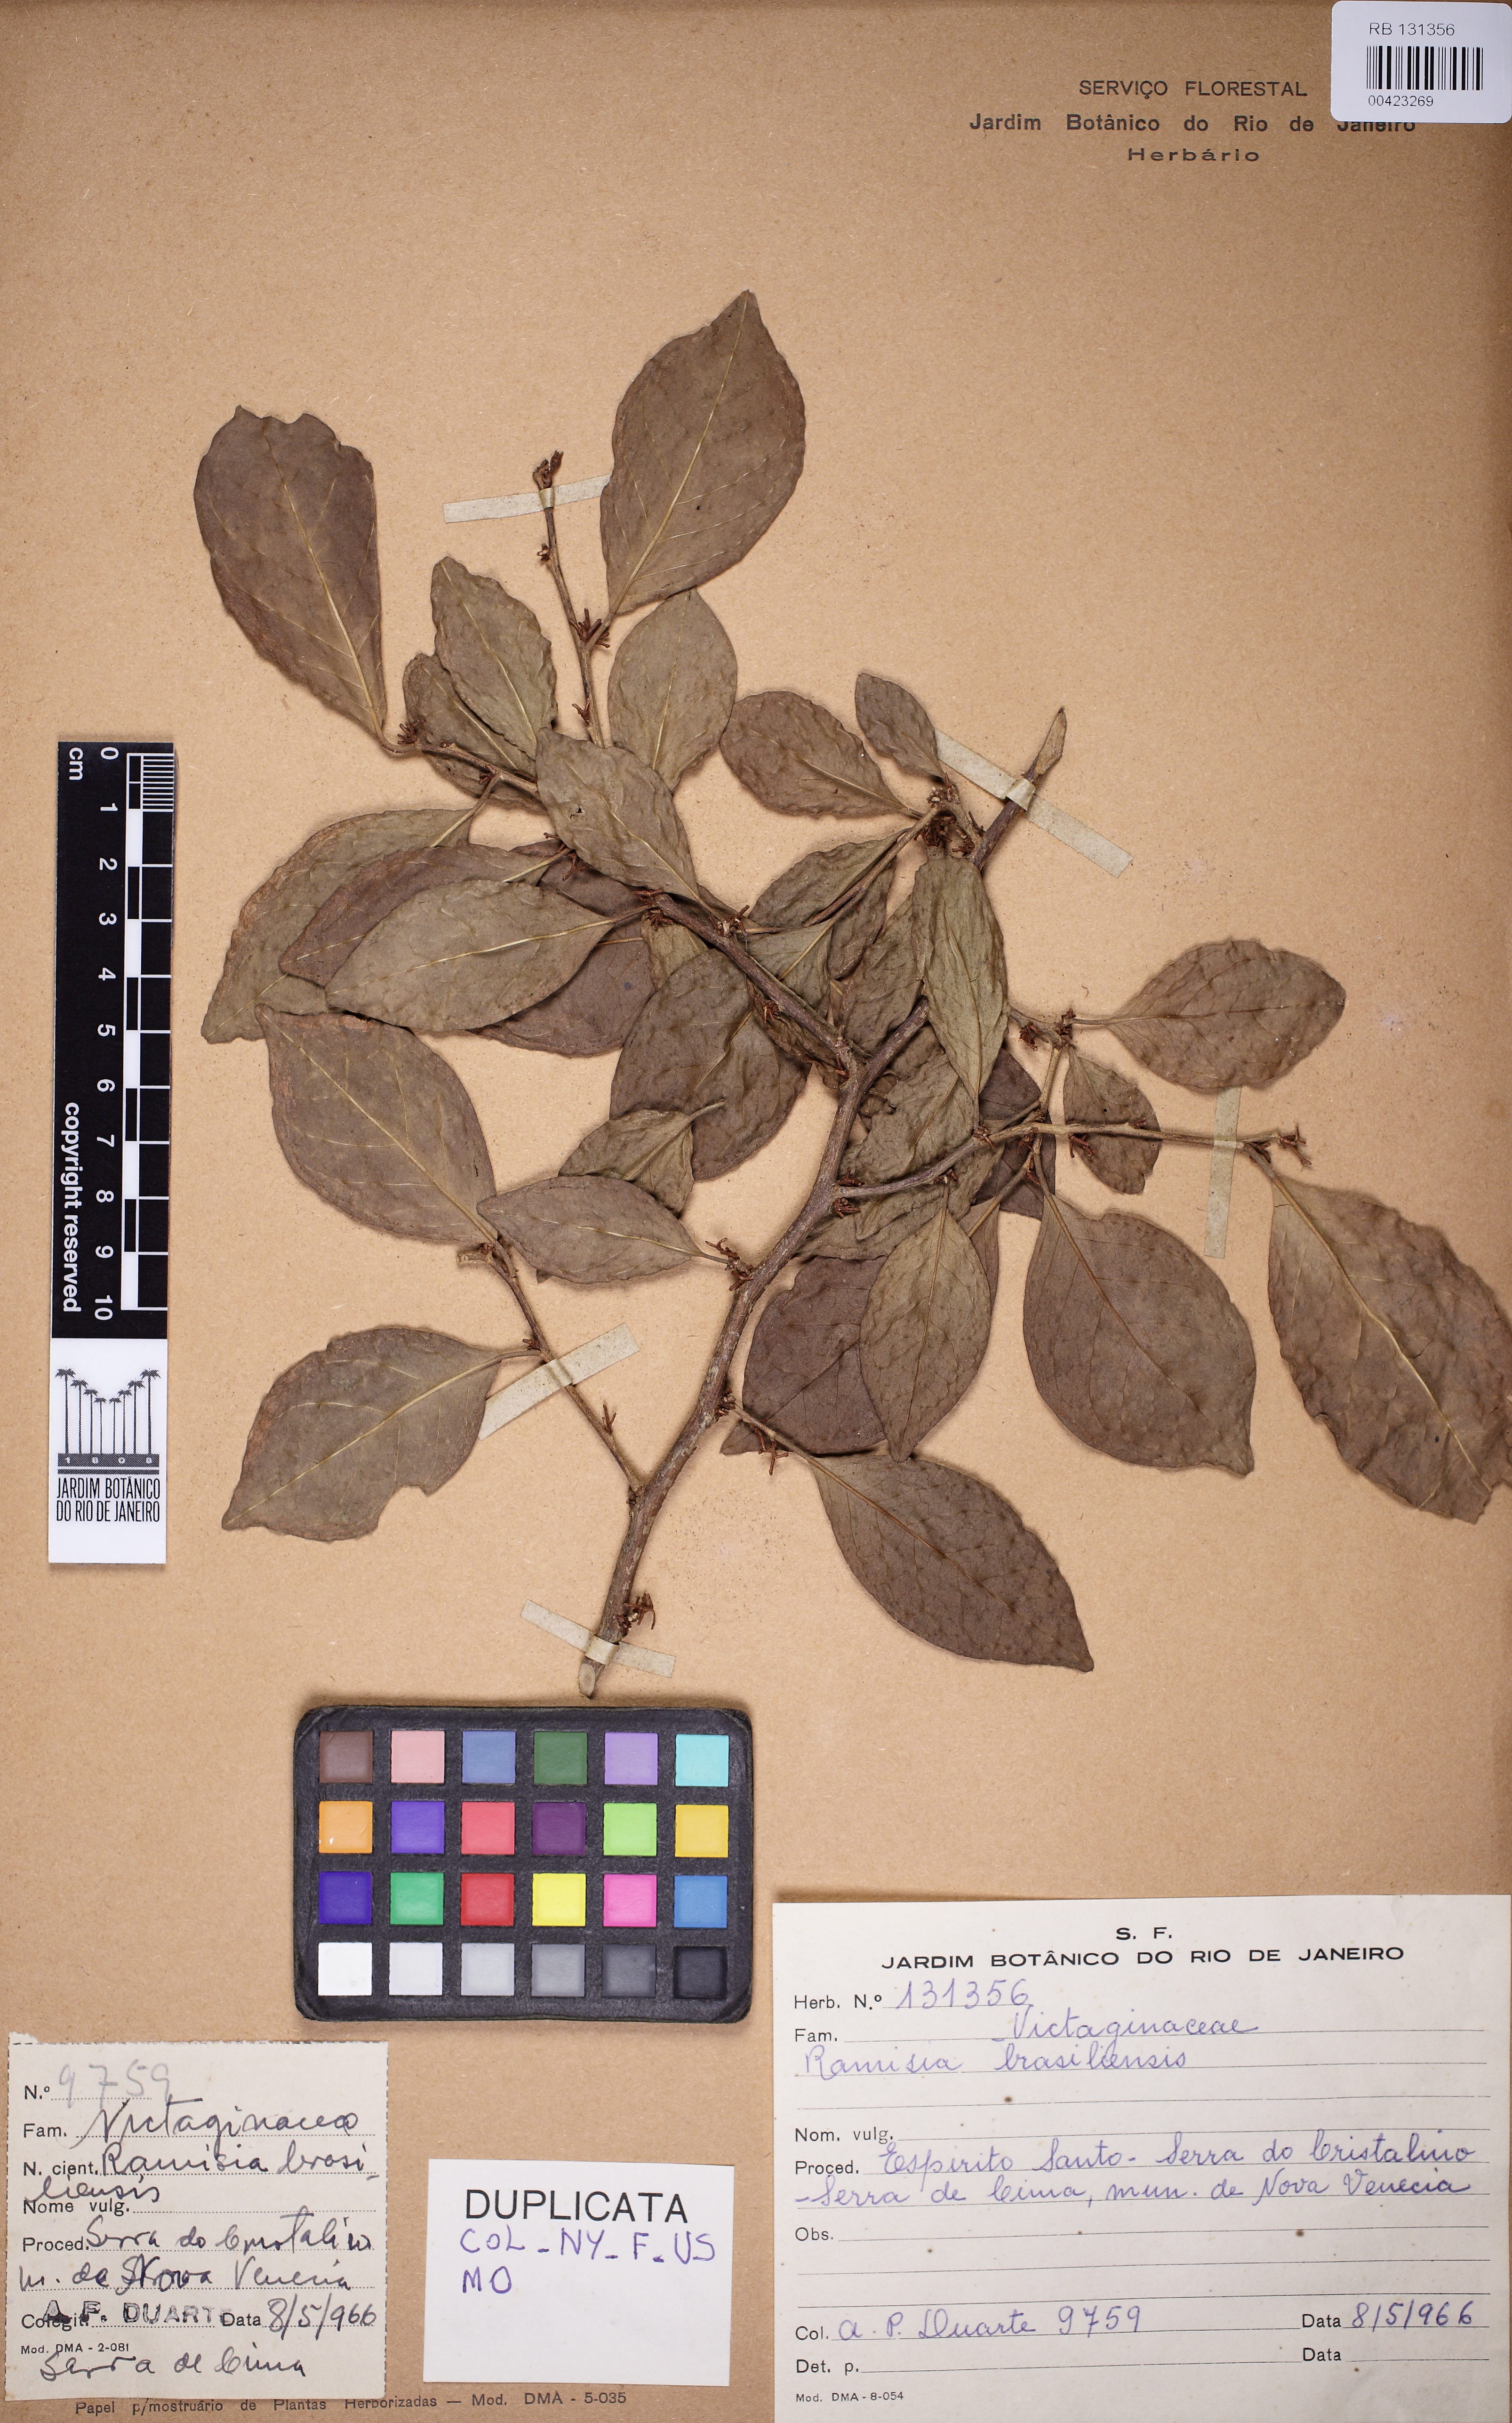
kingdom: Plantae
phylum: Tracheophyta
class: Magnoliopsida
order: Caryophyllales
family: Nyctaginaceae
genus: Ramisia
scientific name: Ramisia brasiliensis
